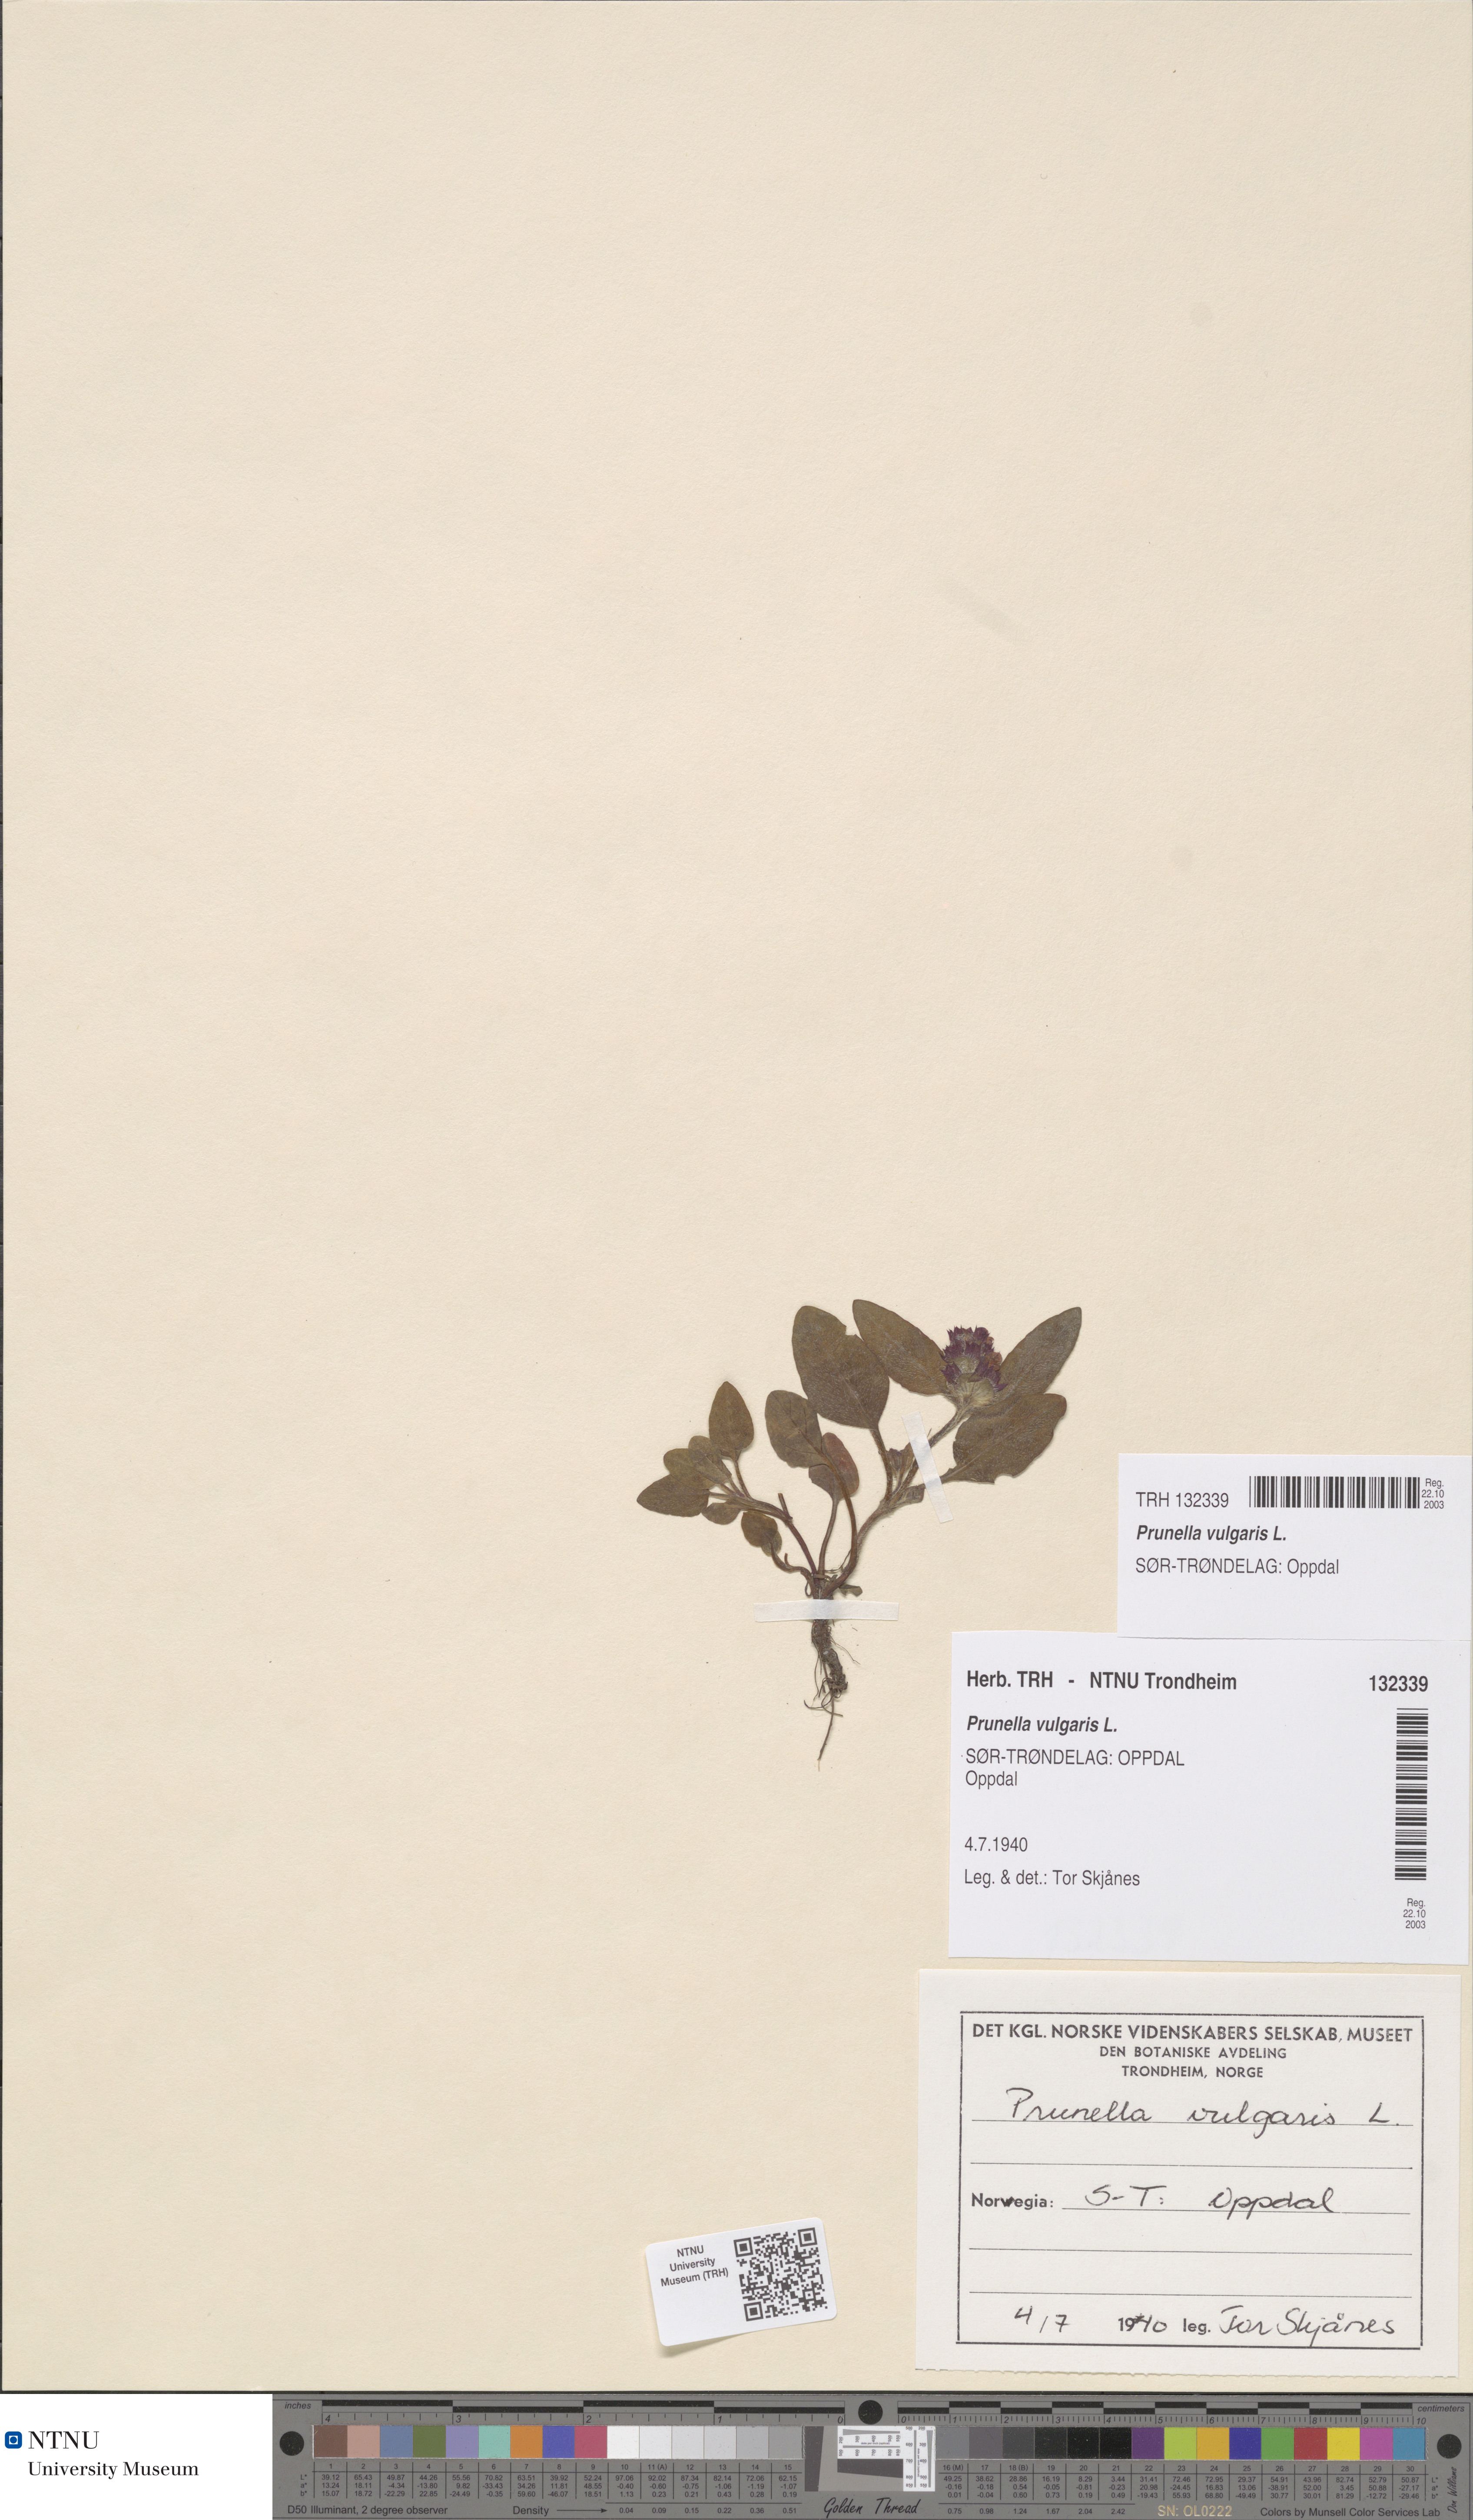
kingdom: Plantae
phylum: Tracheophyta
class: Magnoliopsida
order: Lamiales
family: Lamiaceae
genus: Prunella
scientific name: Prunella vulgaris
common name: Heal-all
